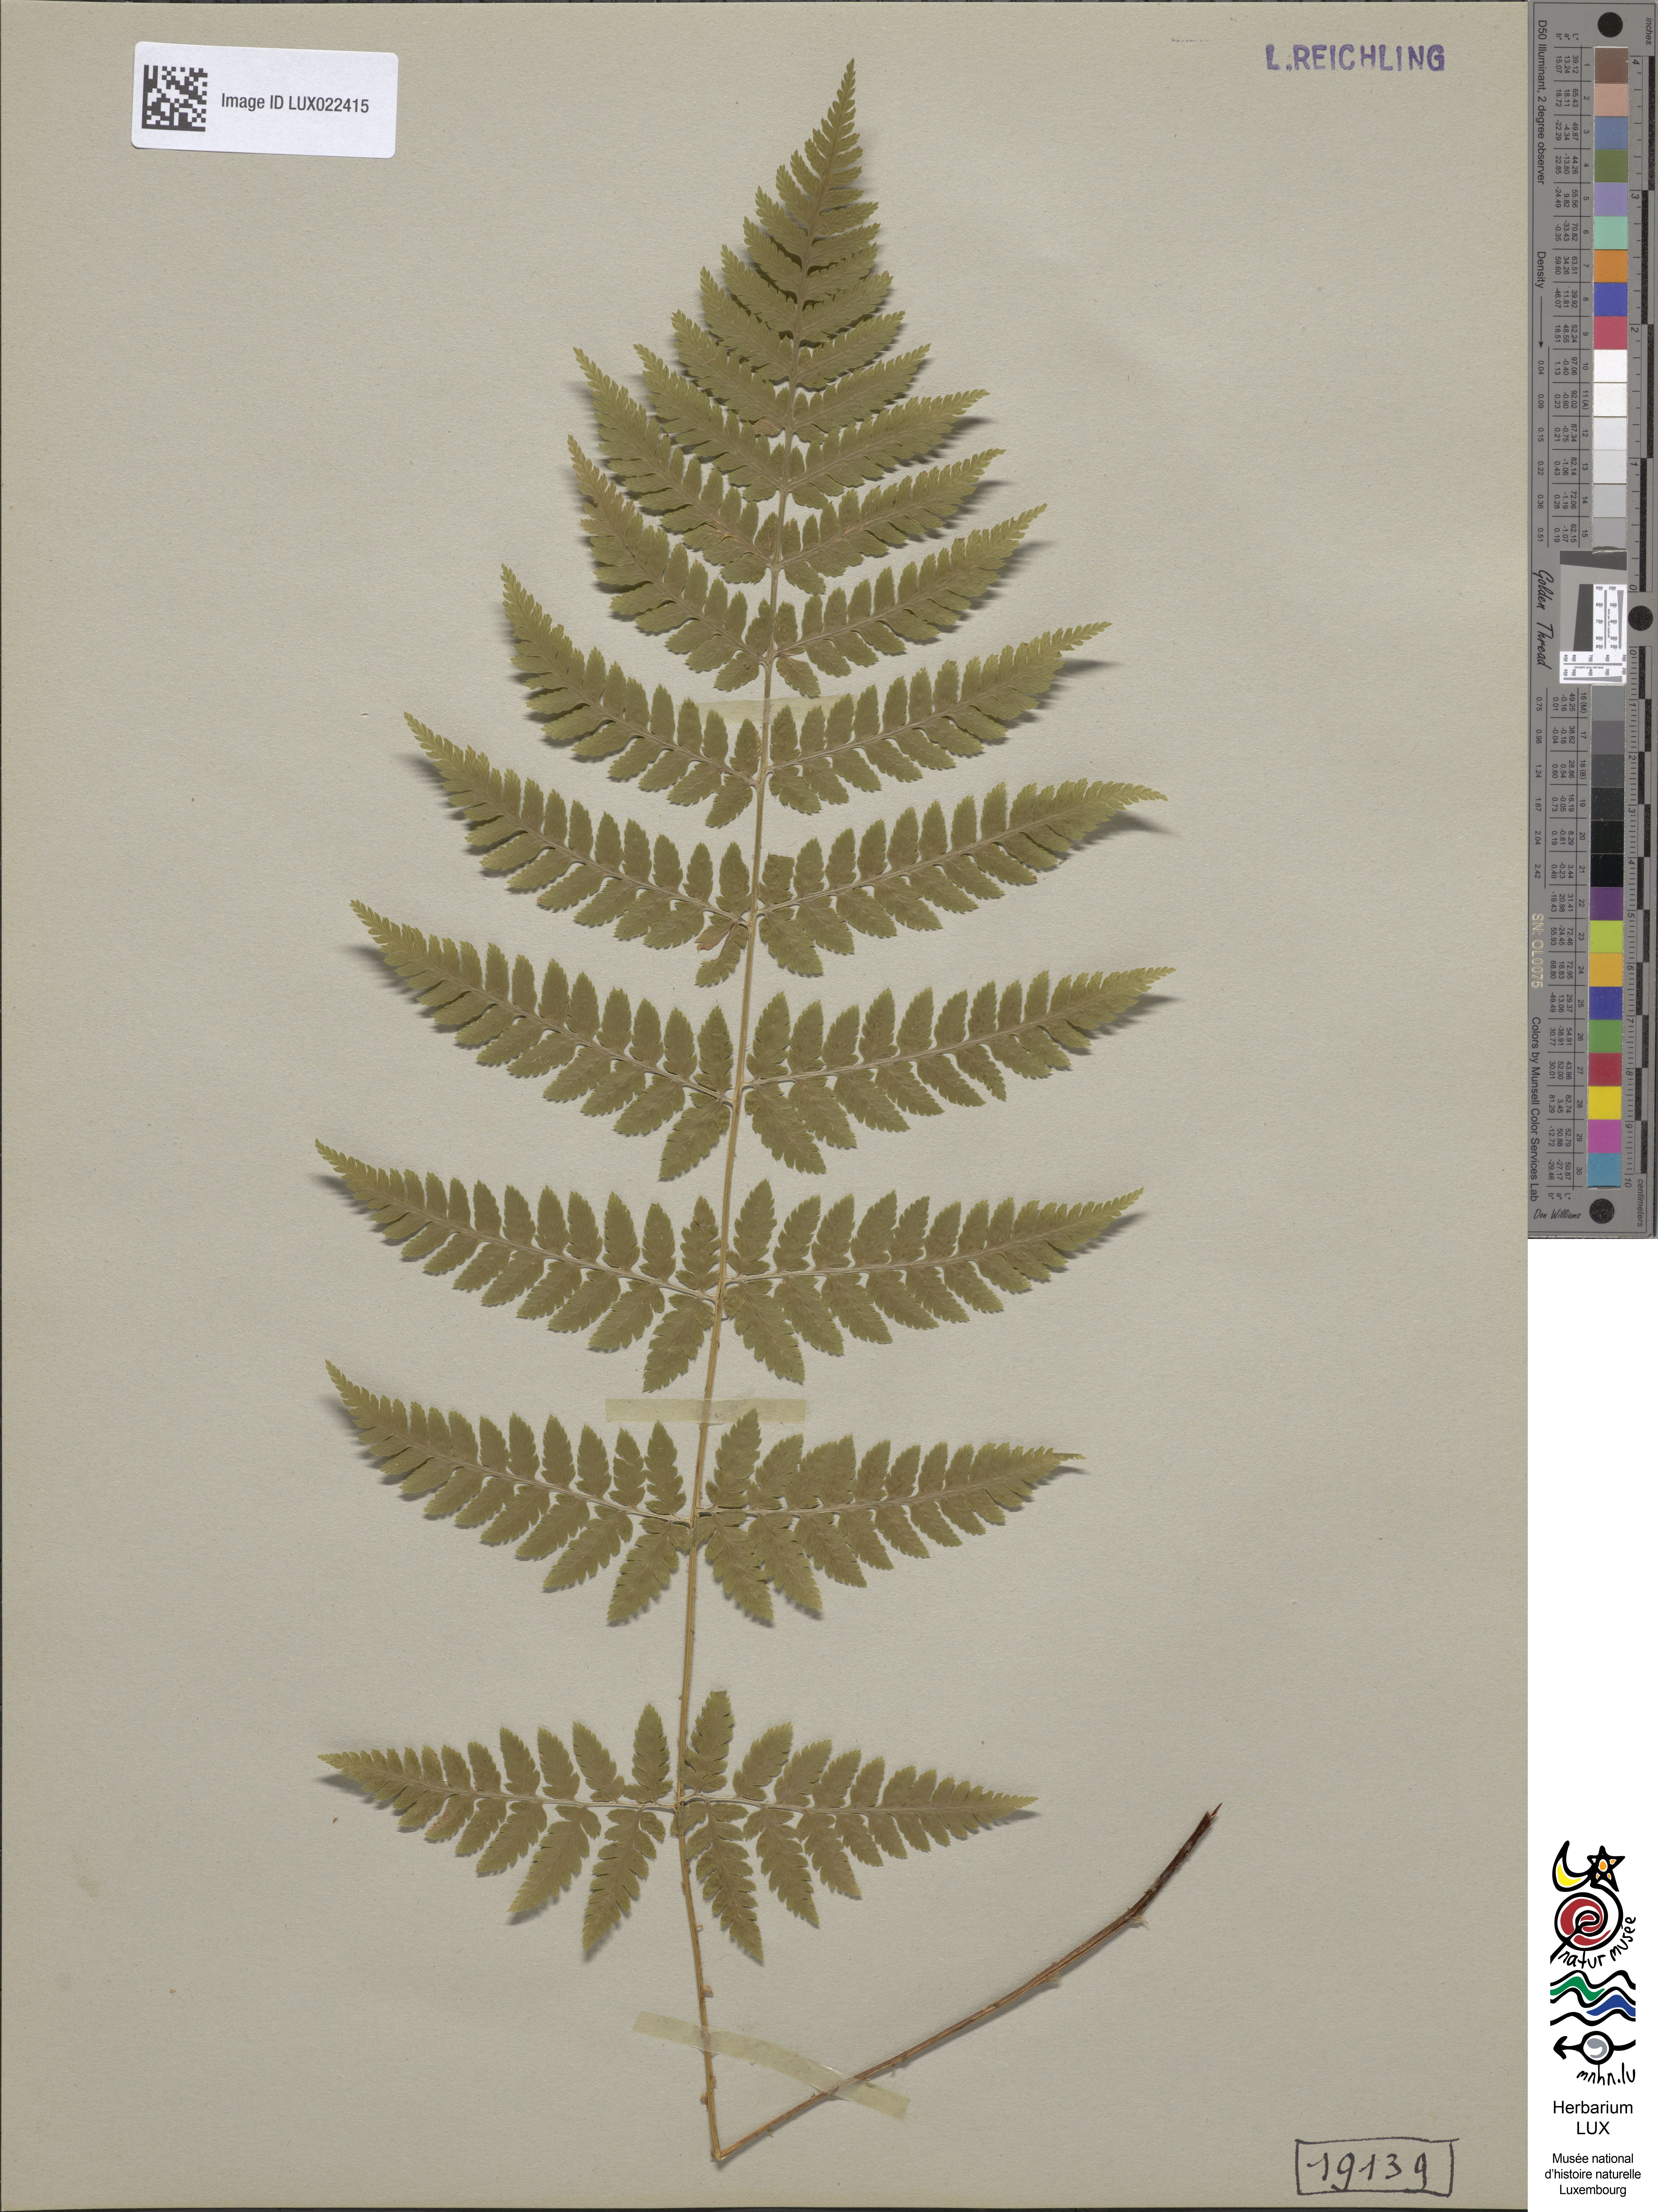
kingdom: Plantae
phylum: Tracheophyta
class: Polypodiopsida
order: Polypodiales
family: Dryopteridaceae
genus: Dryopteris
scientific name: Dryopteris carthusiana
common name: Narrow buckler-fern
